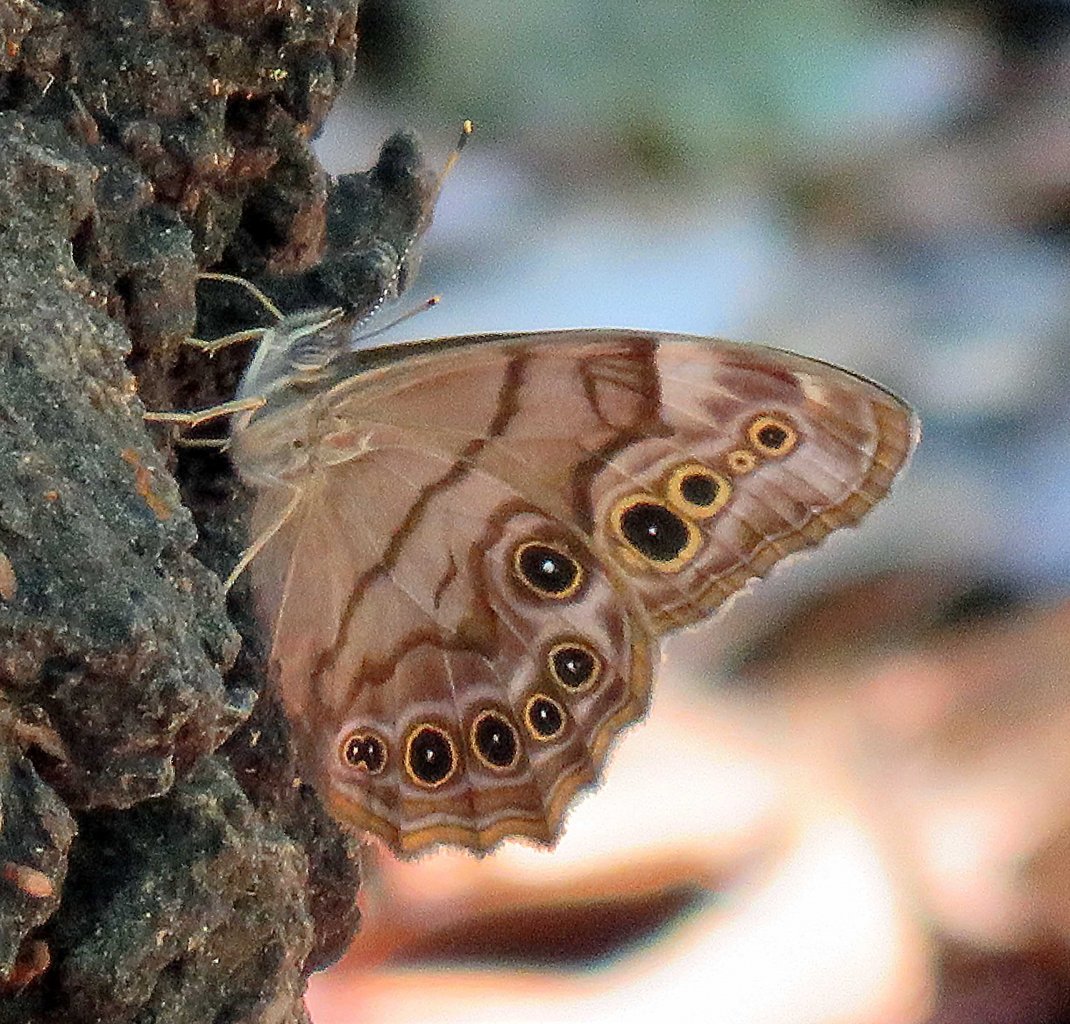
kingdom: Animalia
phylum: Arthropoda
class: Insecta
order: Lepidoptera
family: Nymphalidae
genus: Lethe
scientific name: Lethe anthedon
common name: Northern Pearly-Eye
